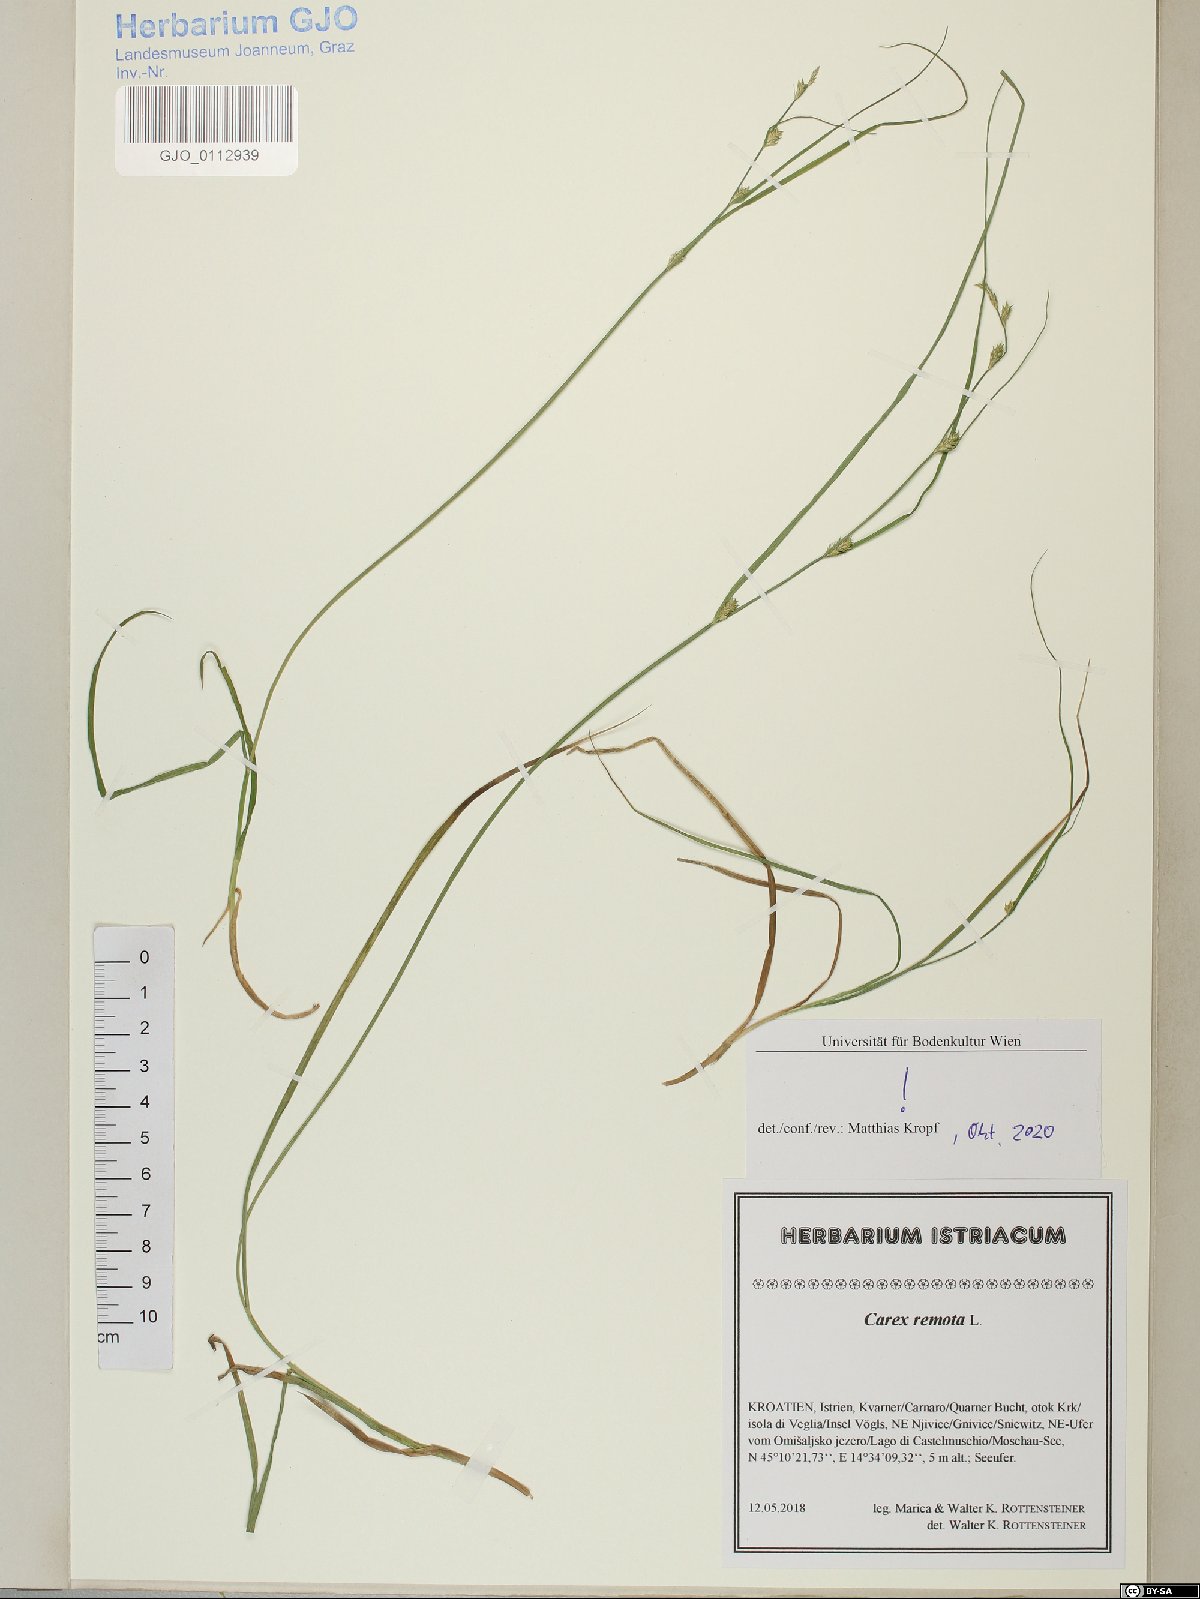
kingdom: Plantae
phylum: Tracheophyta
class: Liliopsida
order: Poales
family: Cyperaceae
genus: Carex
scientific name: Carex remota
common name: Remote sedge
